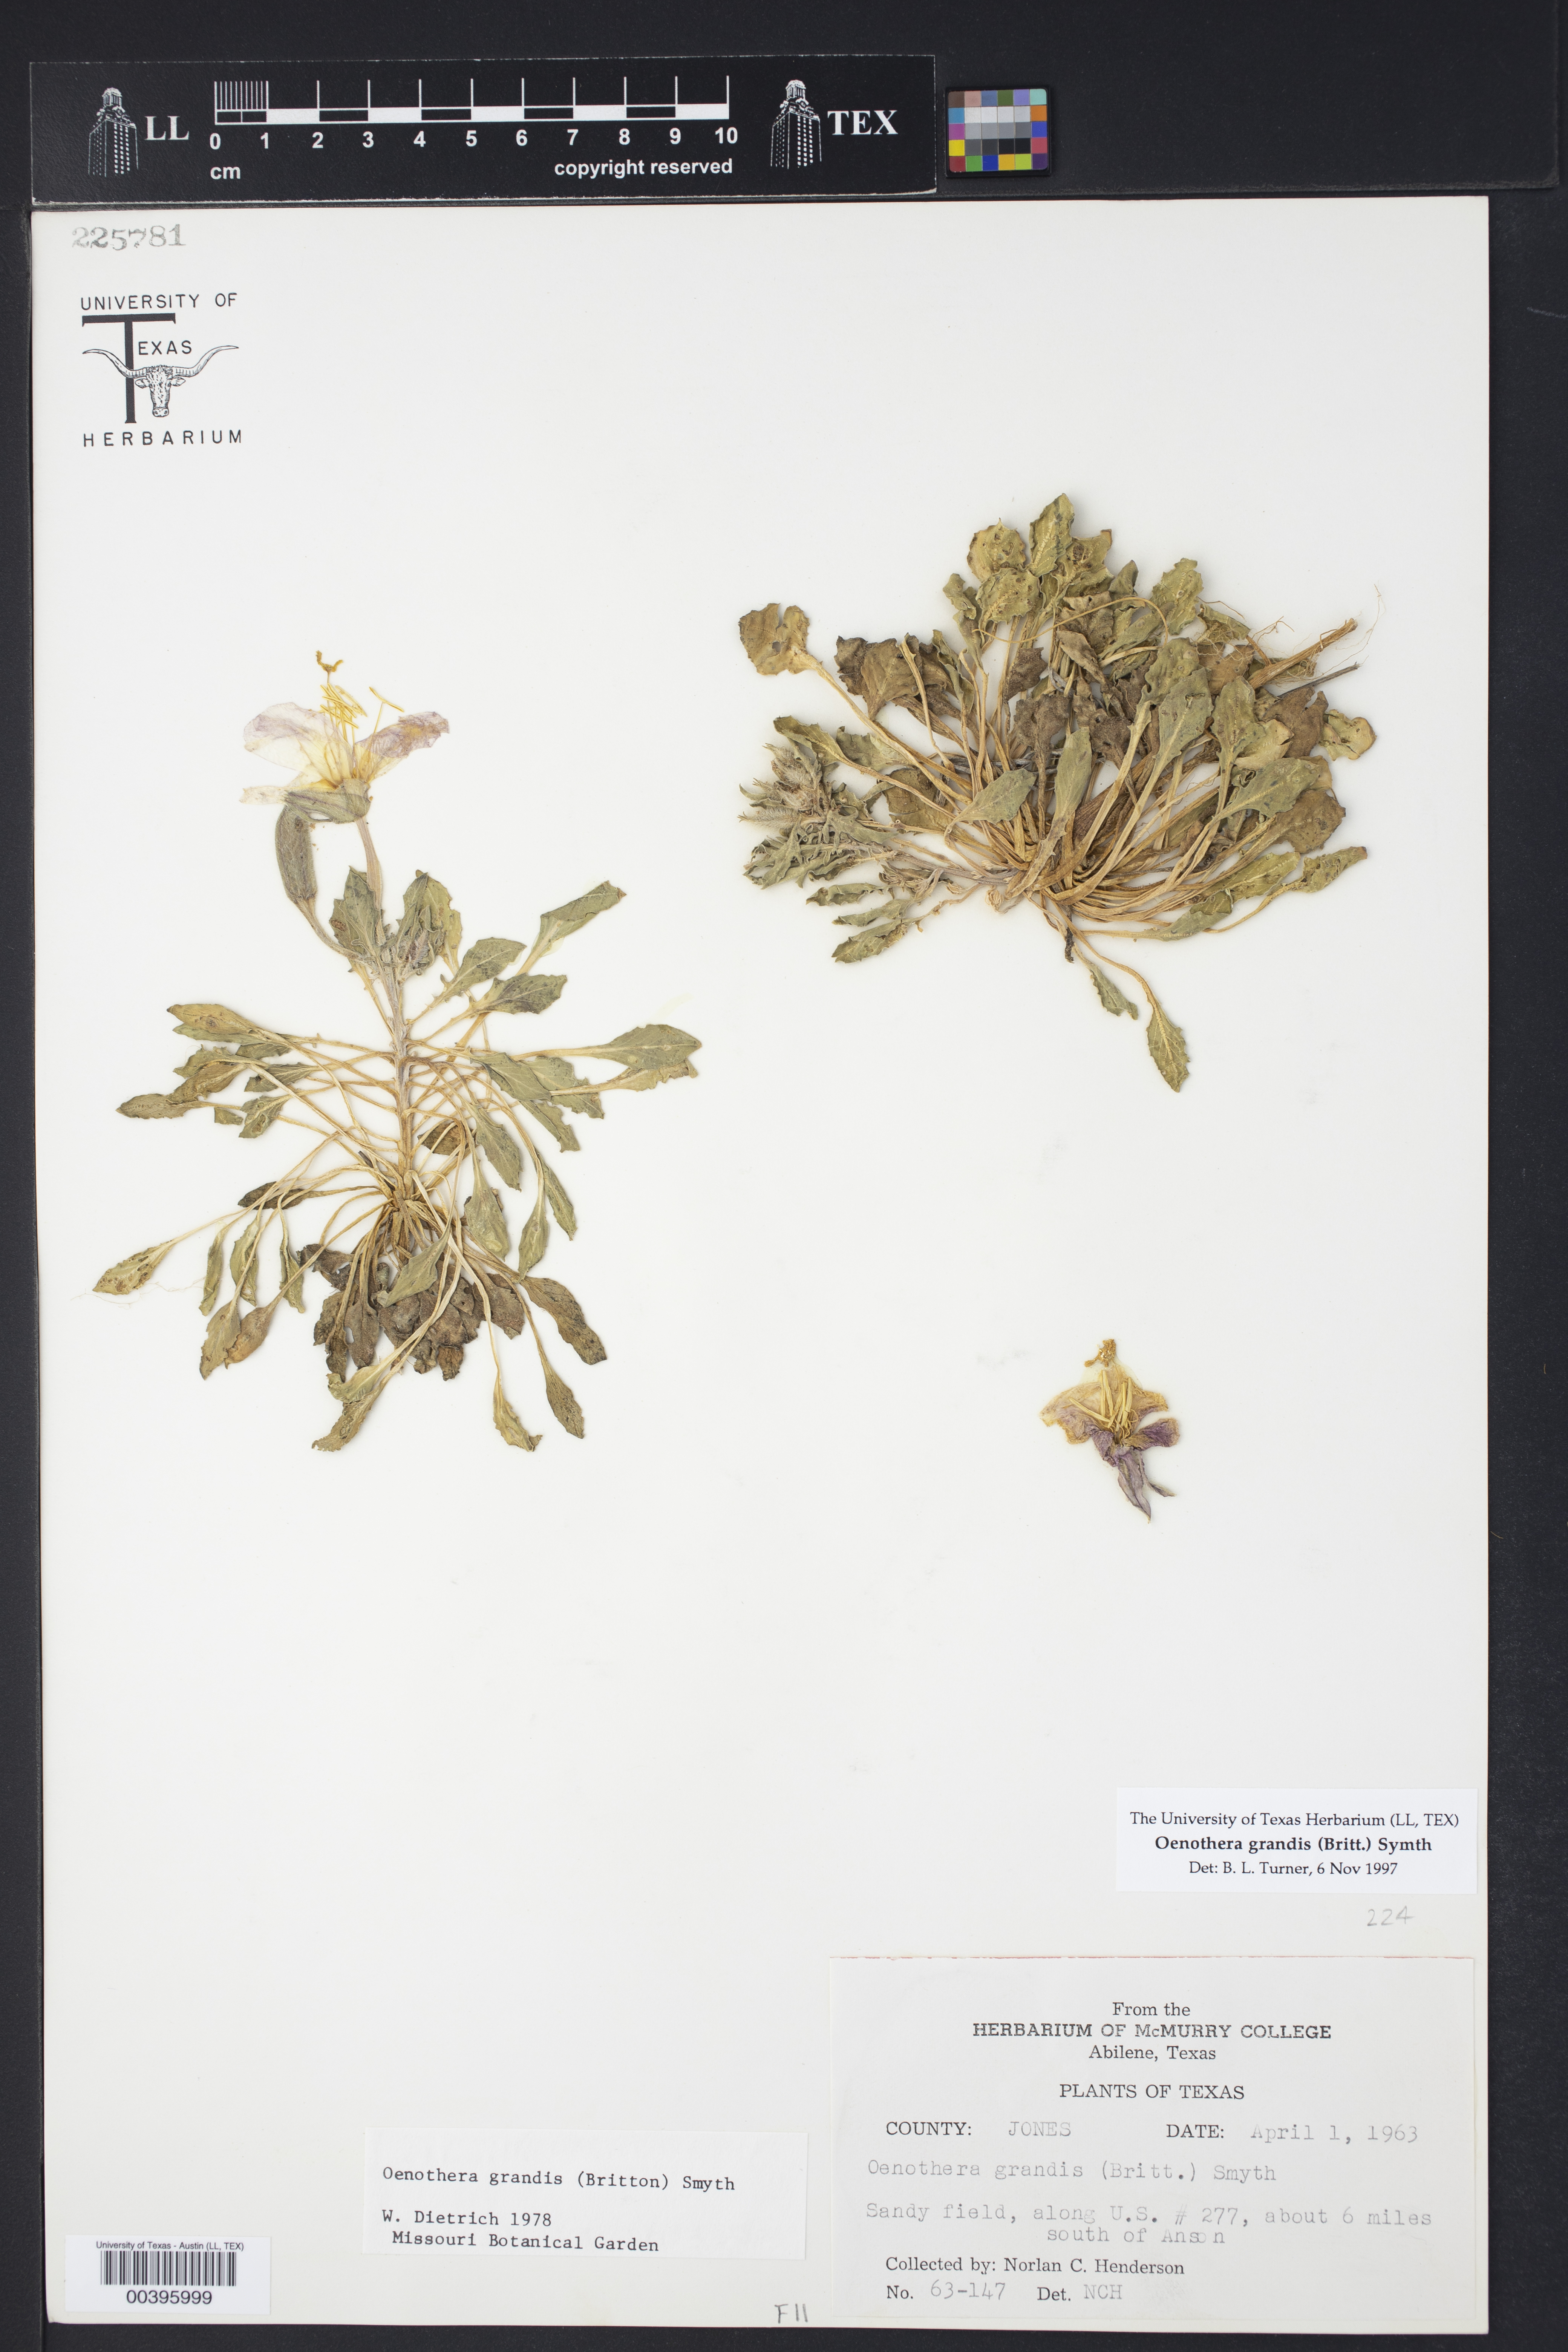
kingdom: Plantae
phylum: Tracheophyta
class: Magnoliopsida
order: Myrtales
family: Onagraceae
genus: Oenothera
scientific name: Oenothera grandis
